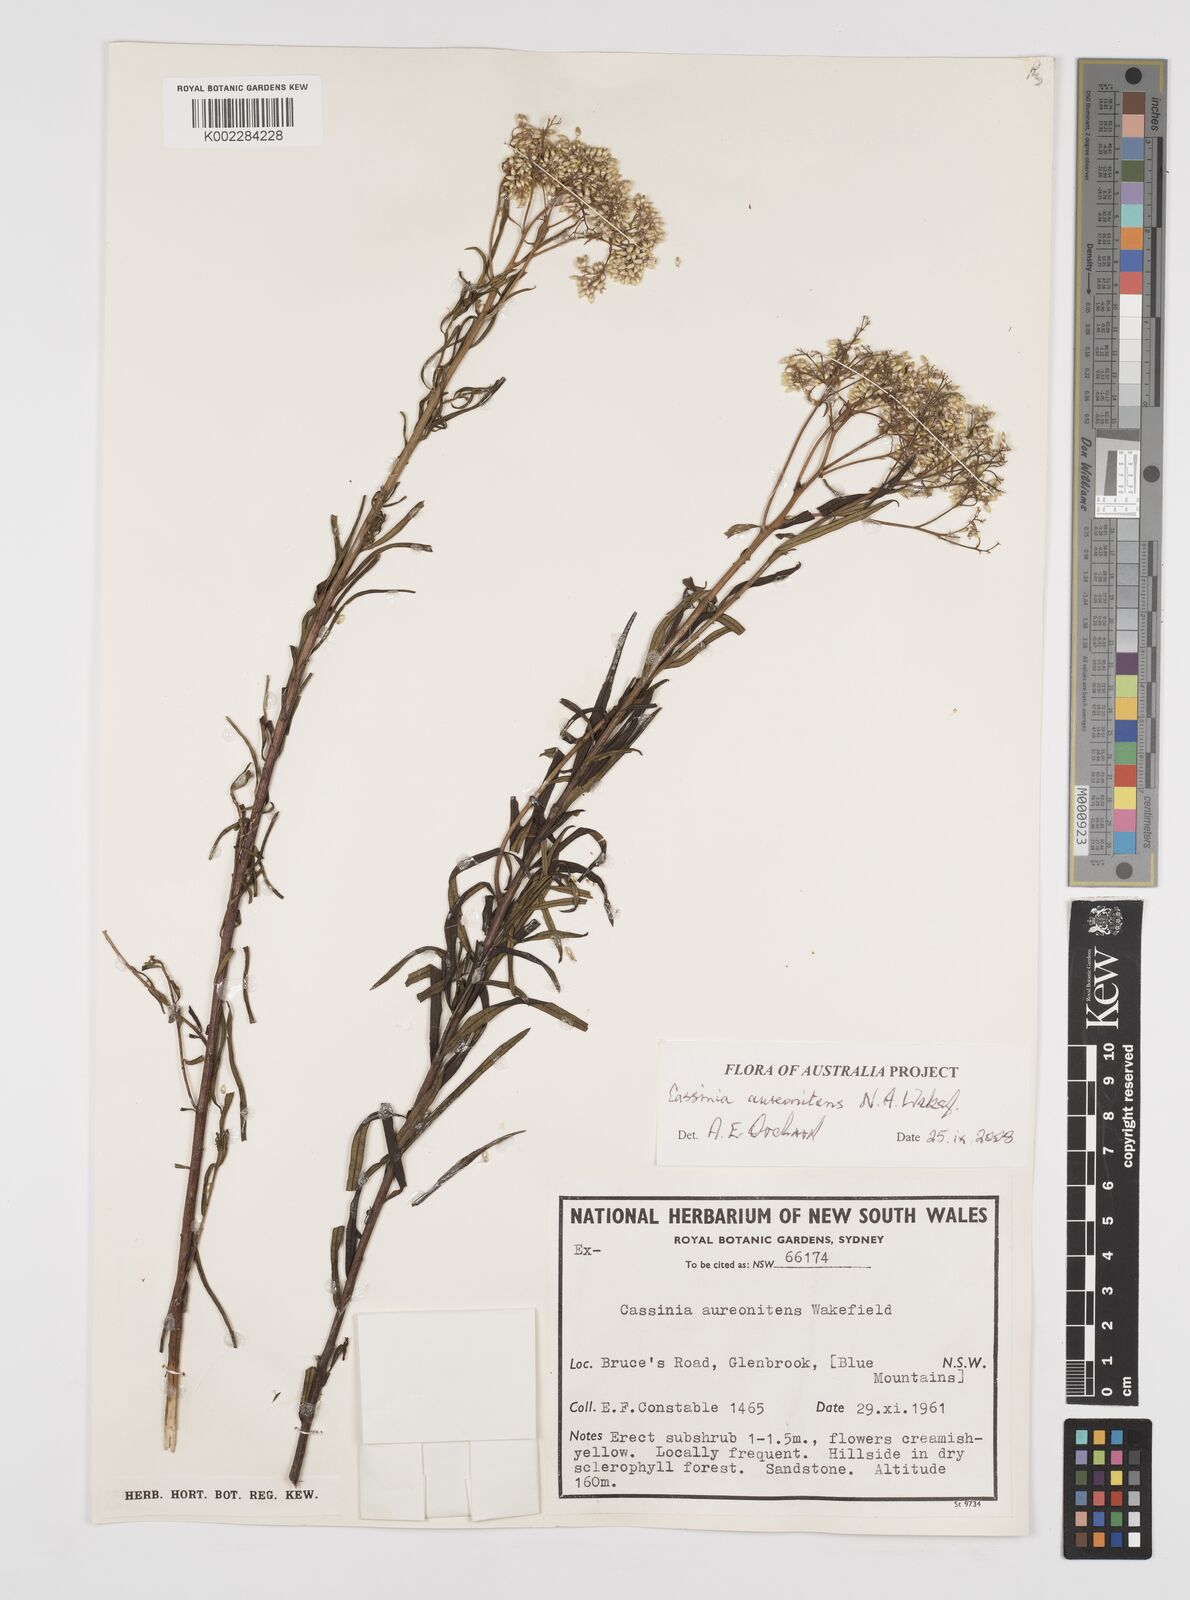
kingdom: Plantae
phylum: Tracheophyta
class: Magnoliopsida
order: Asterales
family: Asteraceae
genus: Cassinia
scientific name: Cassinia aureonitens
